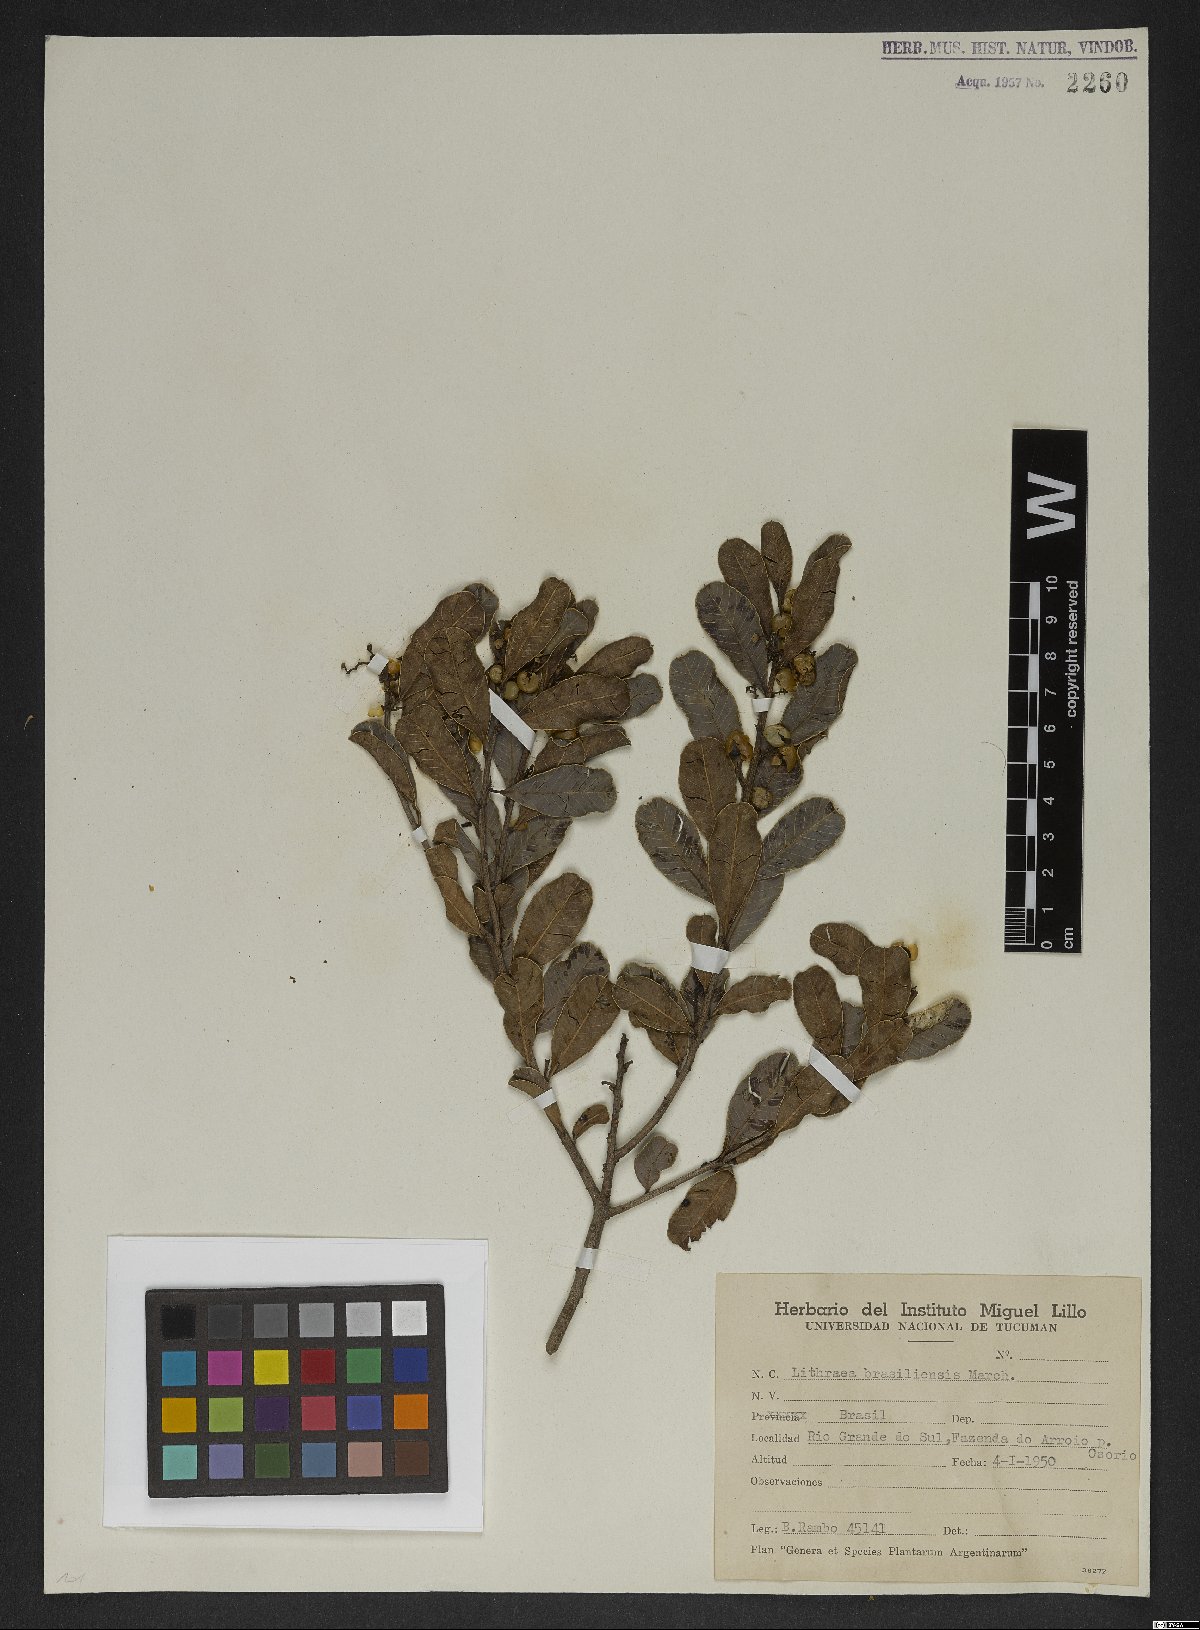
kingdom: Plantae
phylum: Tracheophyta
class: Magnoliopsida
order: Sapindales
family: Anacardiaceae
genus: Lithraea
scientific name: Lithraea brasiliensis
